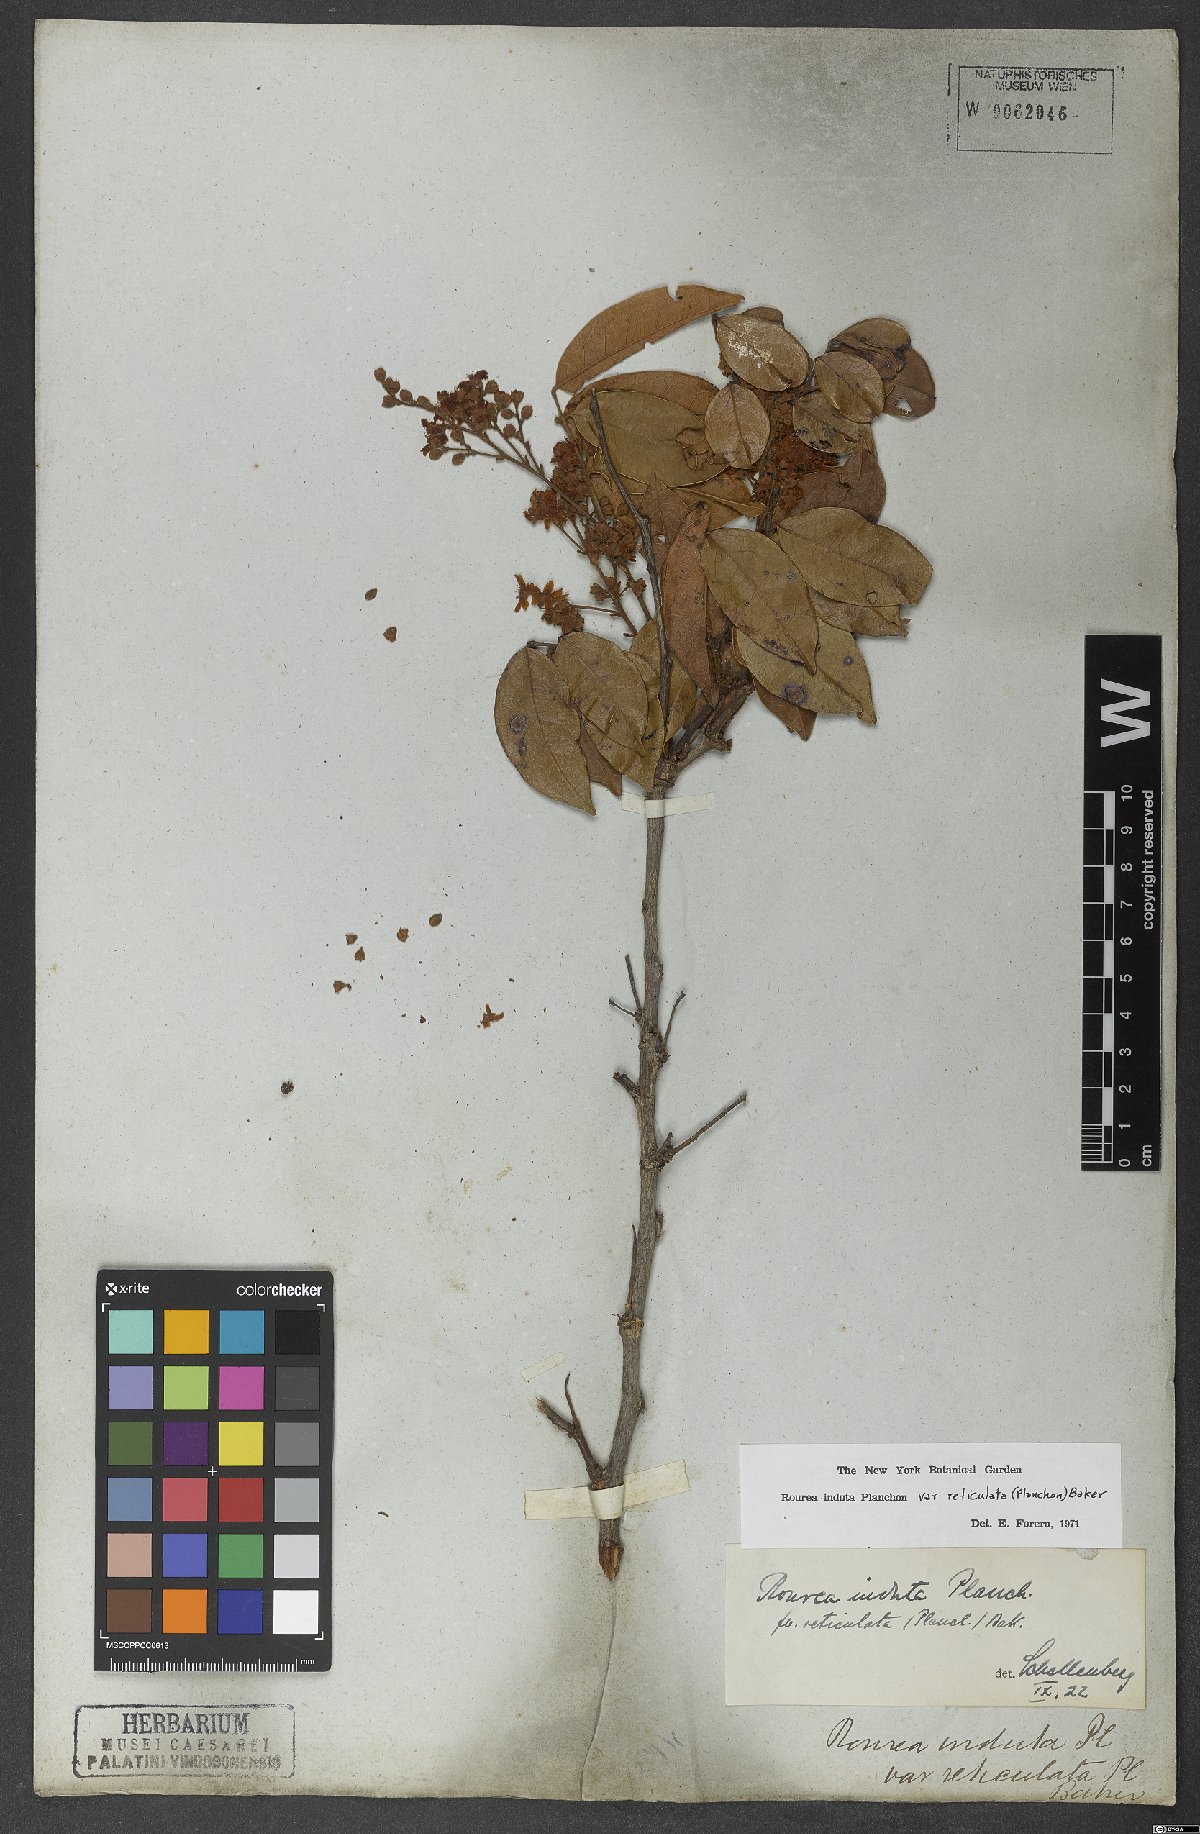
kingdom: Plantae
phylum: Tracheophyta
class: Magnoliopsida
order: Oxalidales
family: Connaraceae
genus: Rourea
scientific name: Rourea induta
